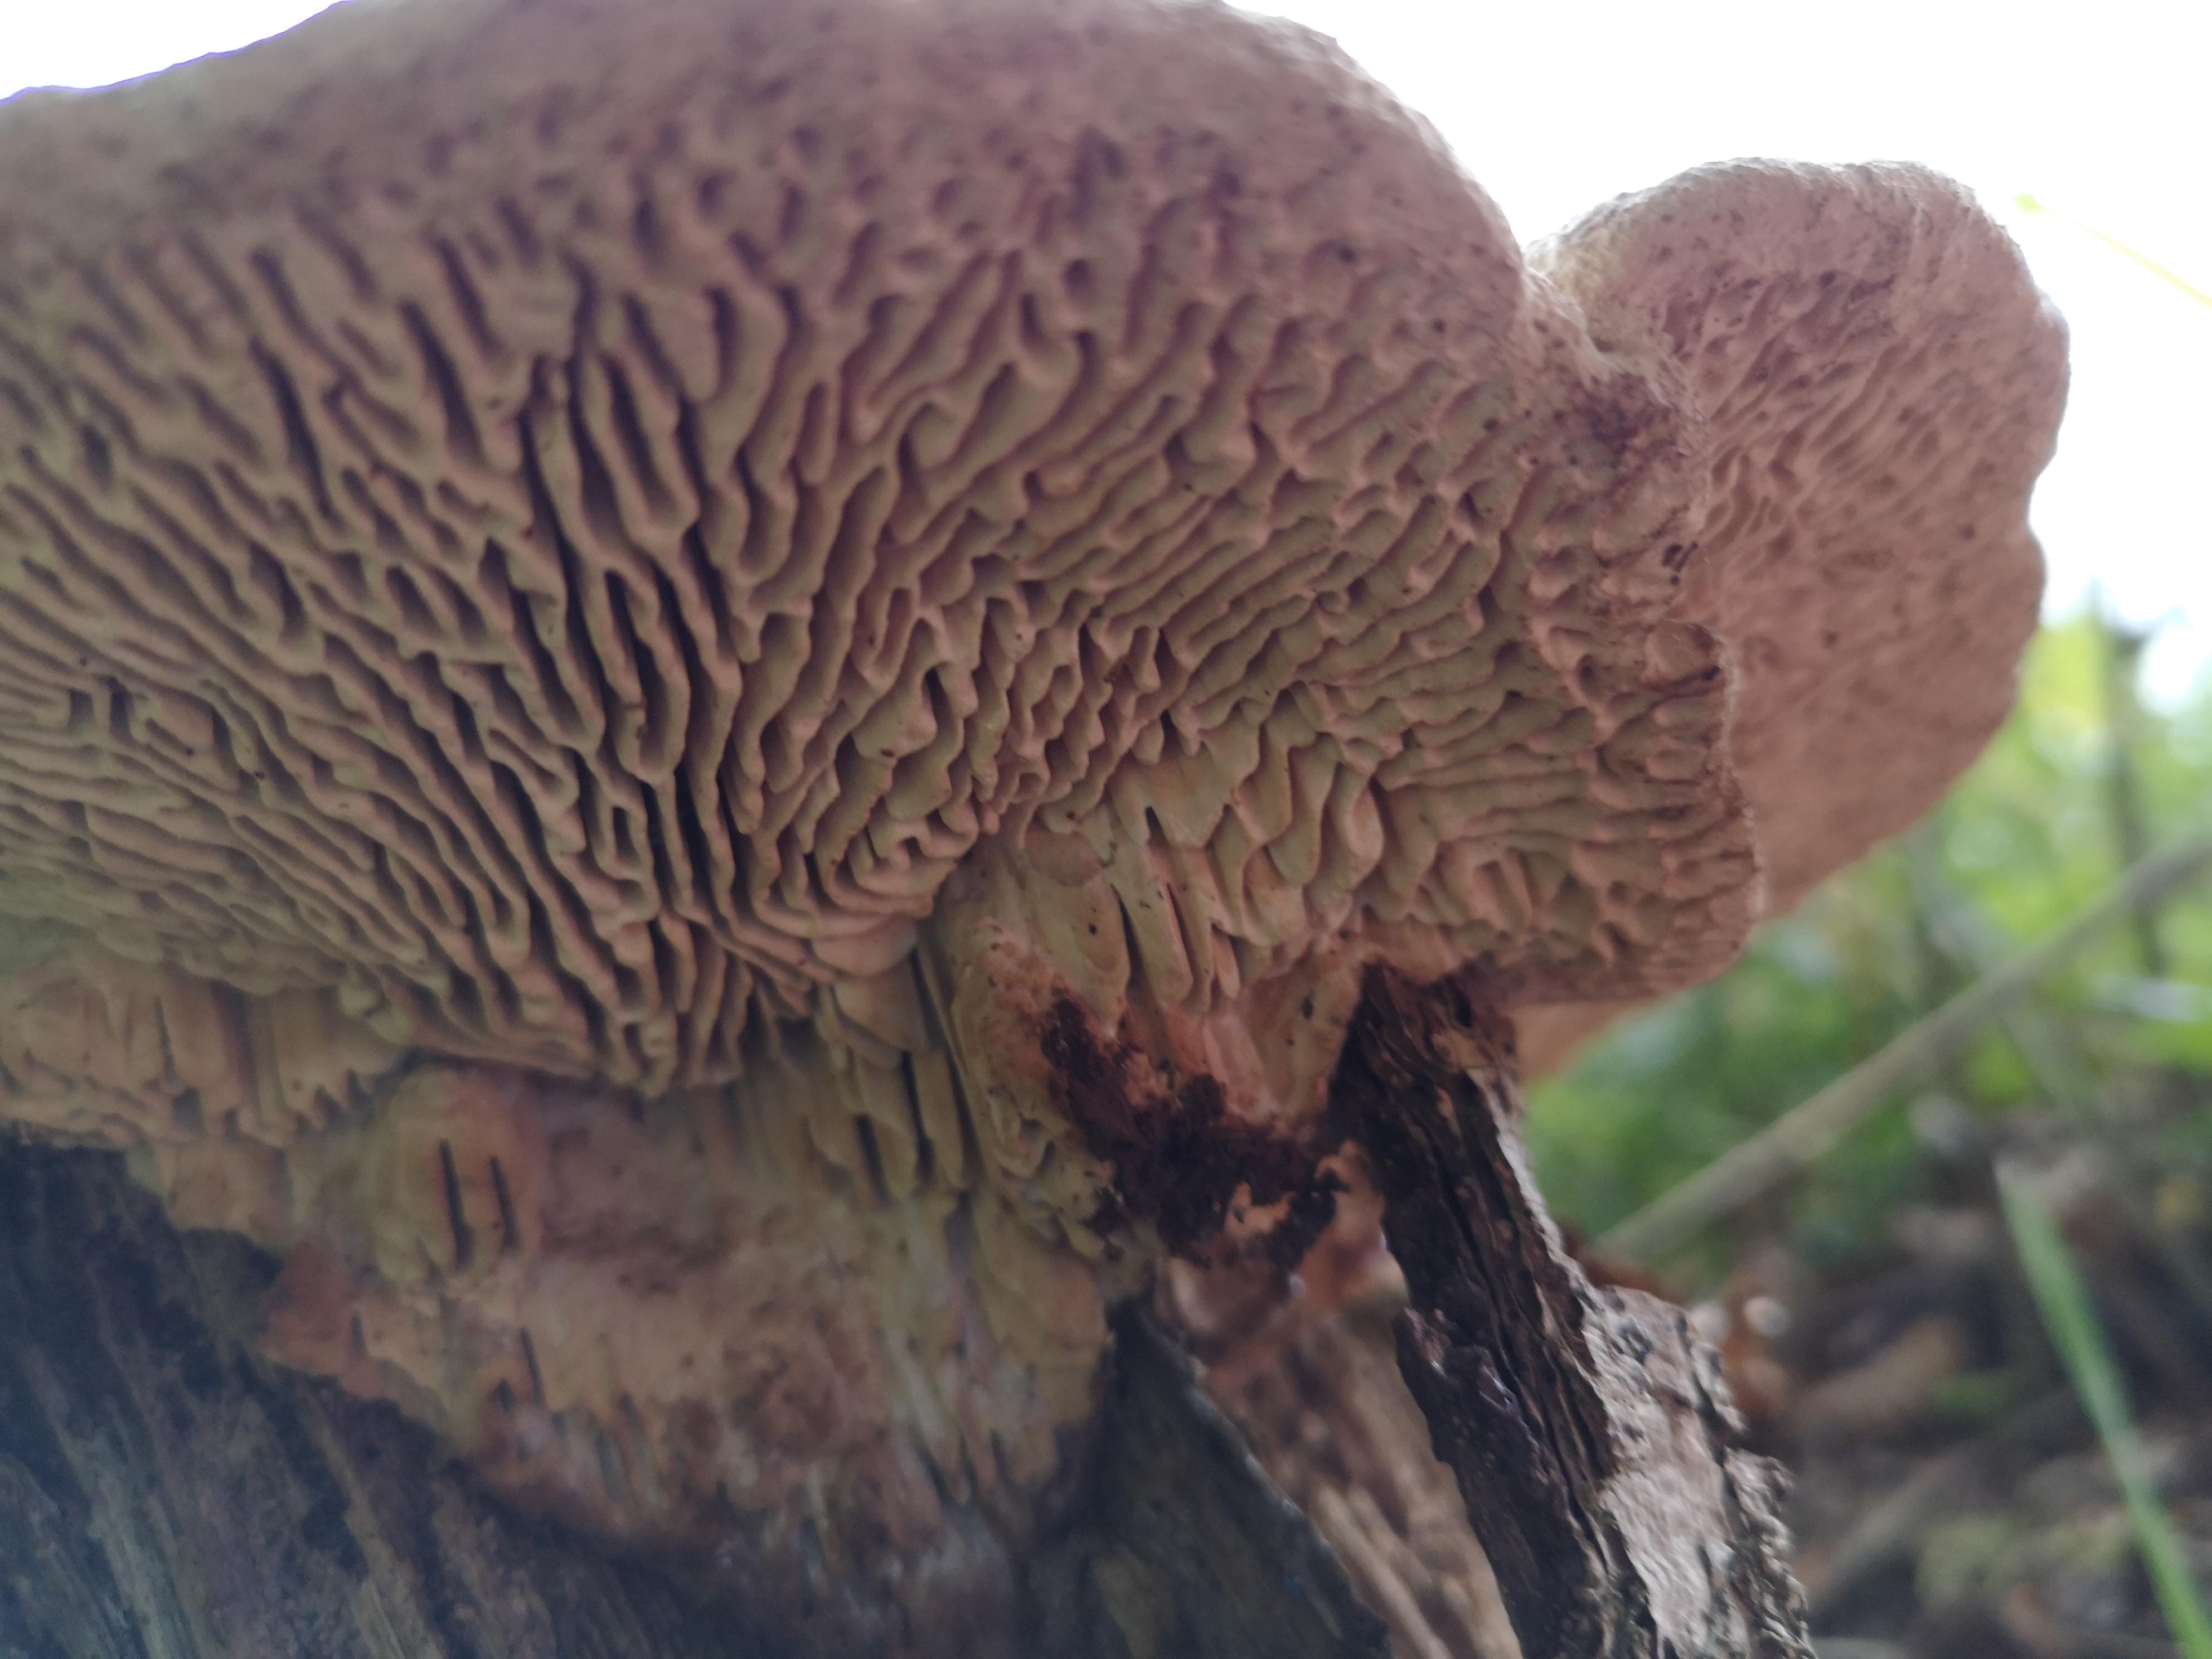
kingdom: Fungi
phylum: Basidiomycota
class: Agaricomycetes
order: Polyporales
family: Fomitopsidaceae
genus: Daedalea
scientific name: Daedalea quercina
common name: ege-labyrintsvamp
